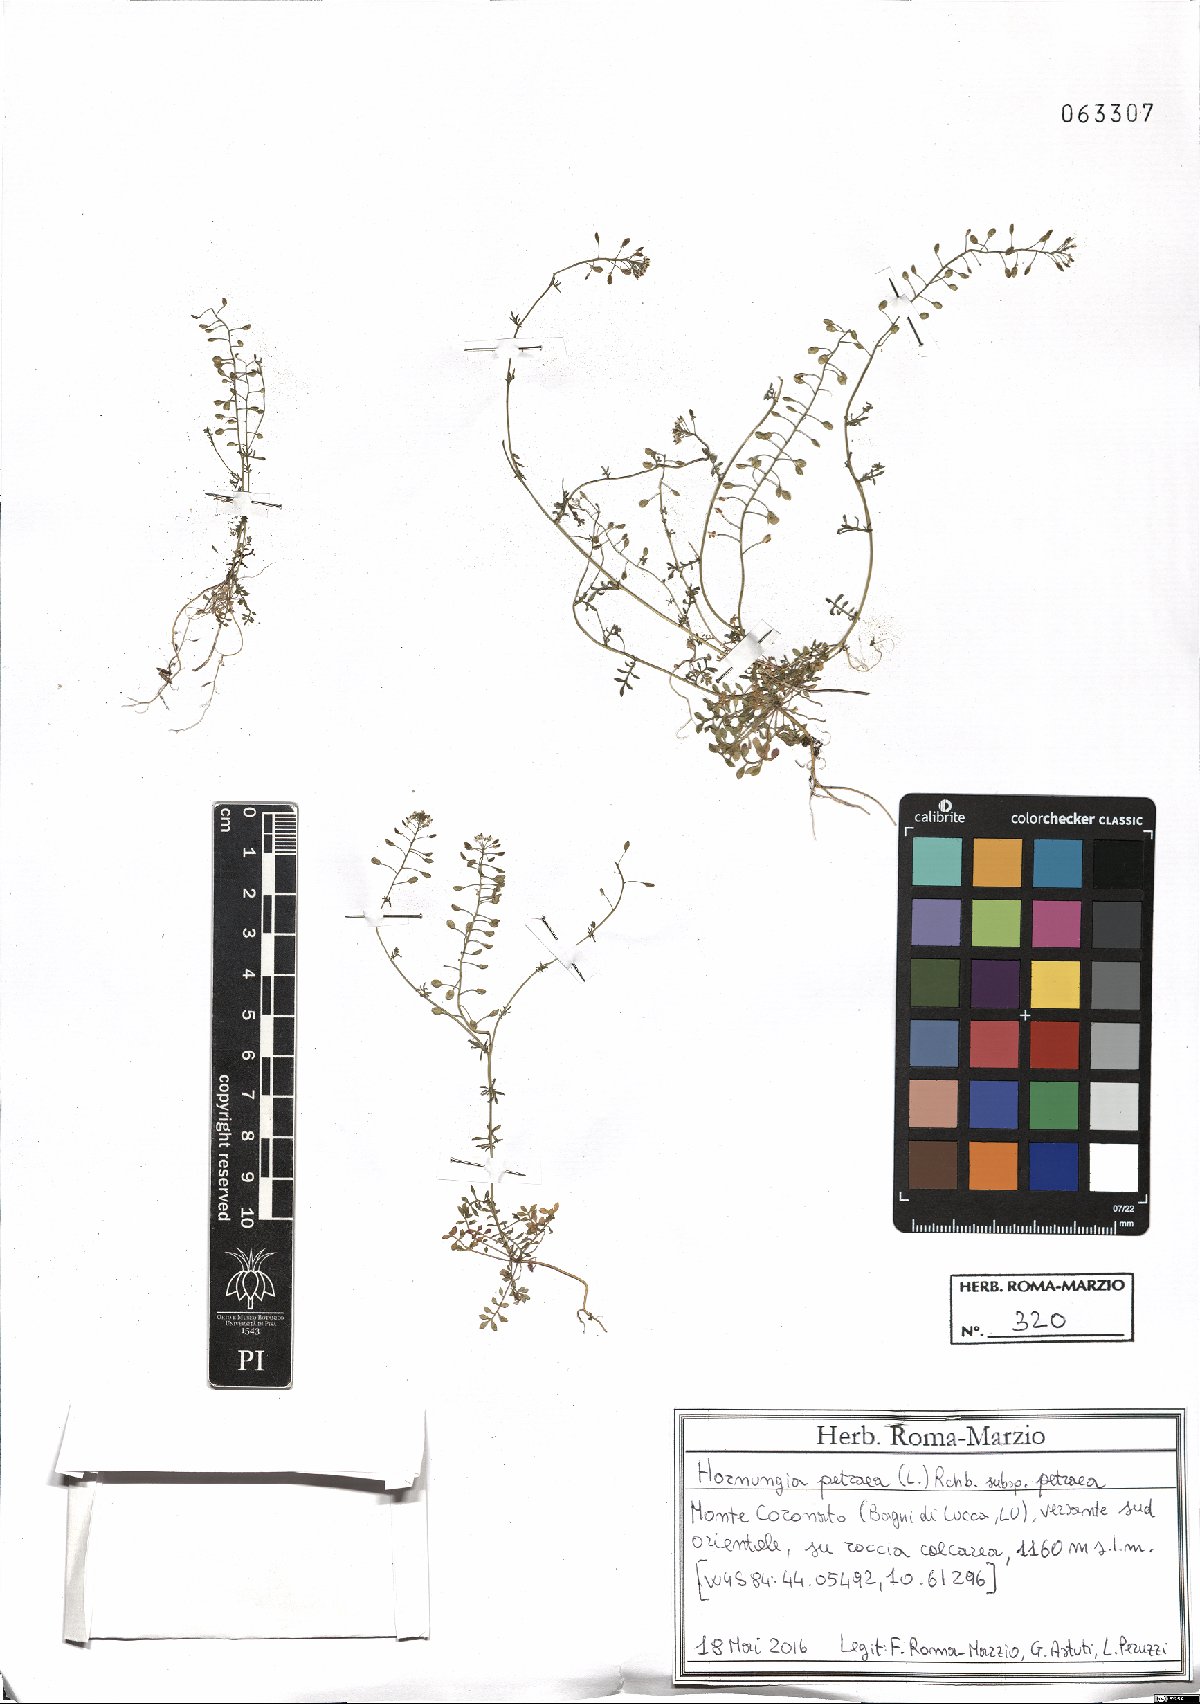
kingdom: Plantae
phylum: Tracheophyta
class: Magnoliopsida
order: Brassicales
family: Brassicaceae
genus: Hornungia
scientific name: Hornungia petraea
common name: Hutchinsia
